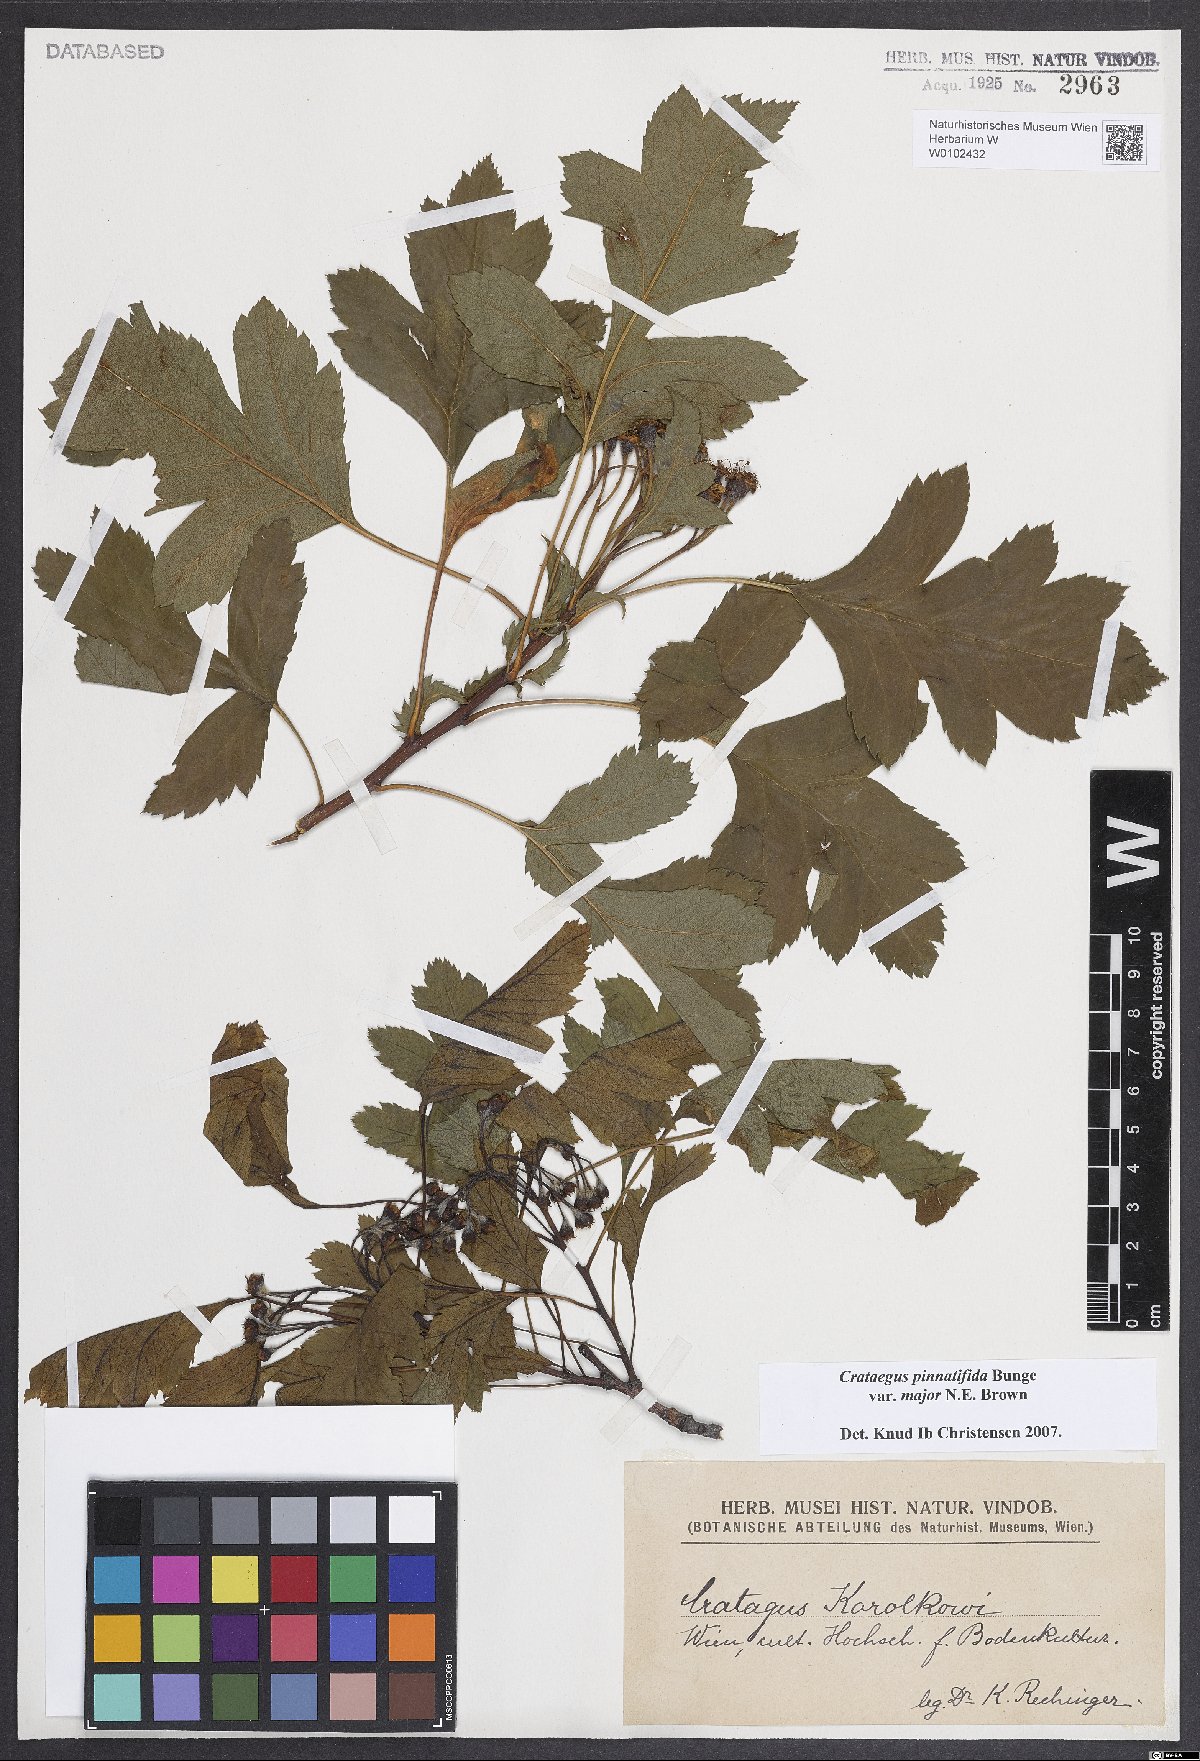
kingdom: Plantae
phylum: Tracheophyta
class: Magnoliopsida
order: Rosales
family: Rosaceae
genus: Crataegus
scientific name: Crataegus pinnatifida
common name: Chinese haw
